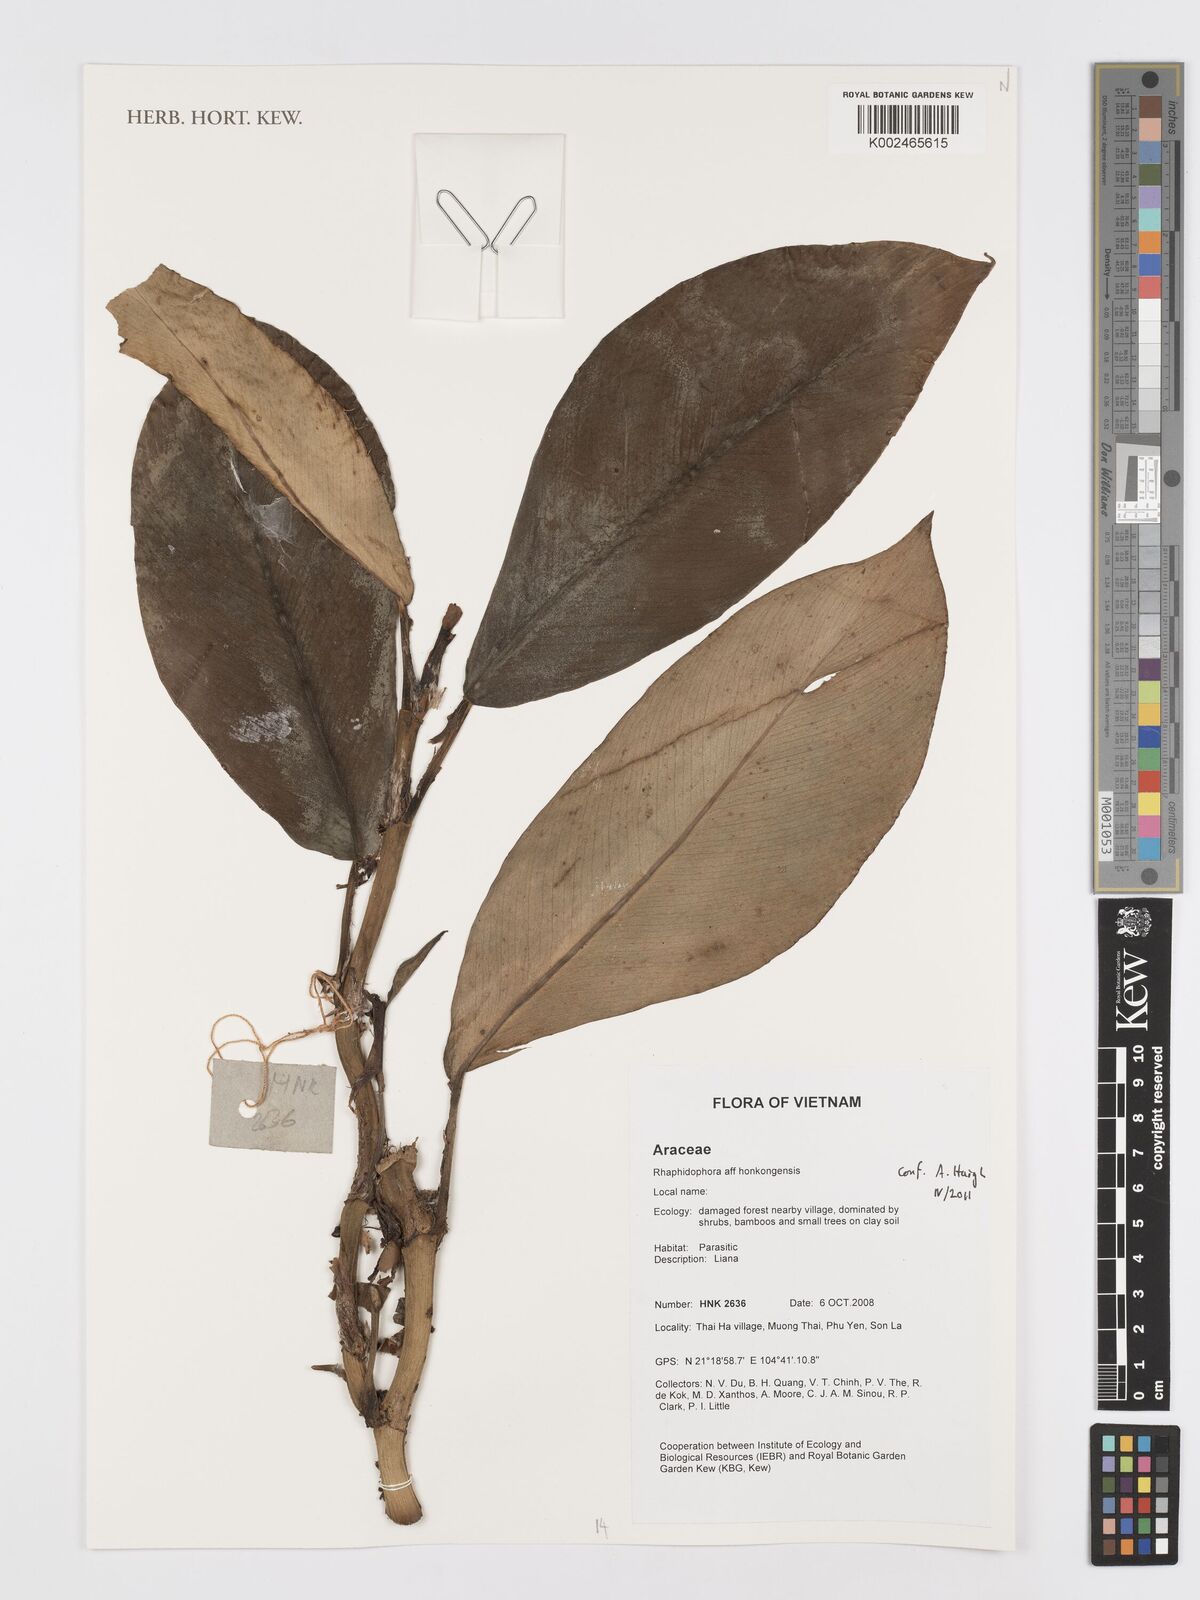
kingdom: Plantae
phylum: Tracheophyta
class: Liliopsida
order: Alismatales
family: Araceae
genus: Rhaphidophora
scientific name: Rhaphidophora hongkongensis
